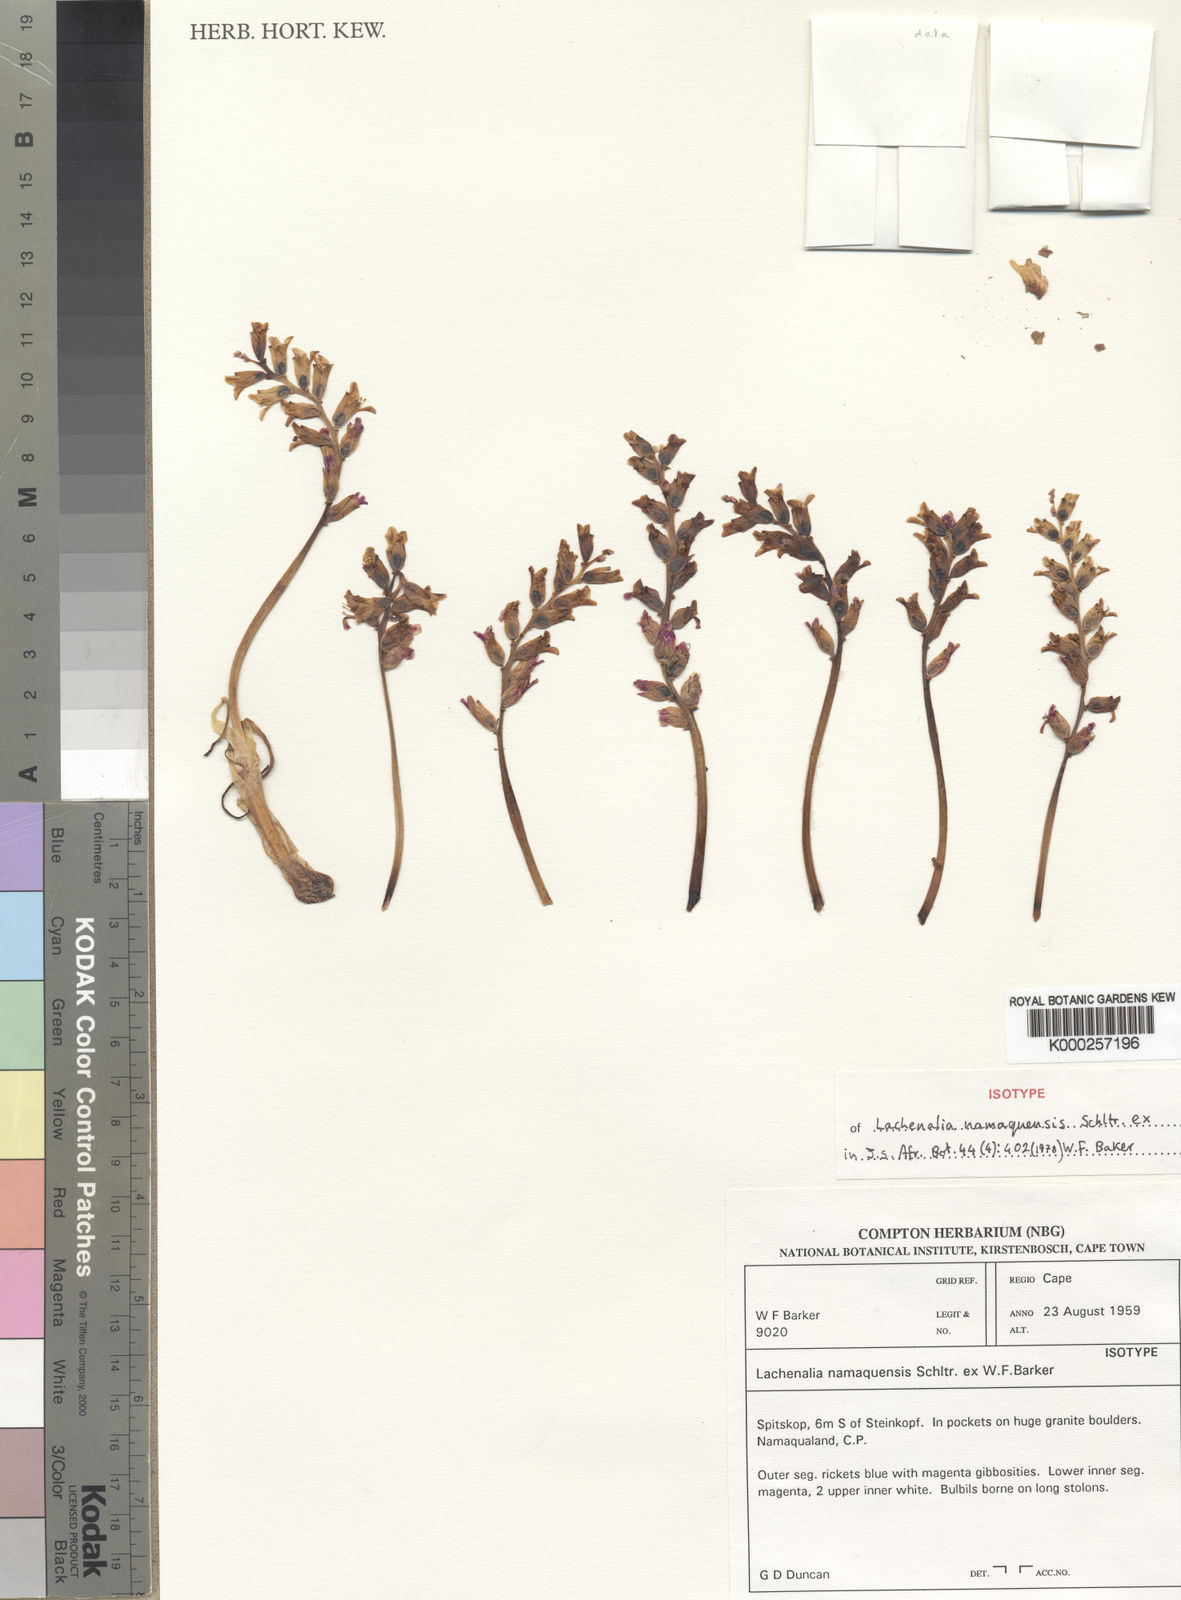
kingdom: Plantae
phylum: Tracheophyta
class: Liliopsida
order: Asparagales
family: Asparagaceae
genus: Lachenalia
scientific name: Lachenalia namaquensis
